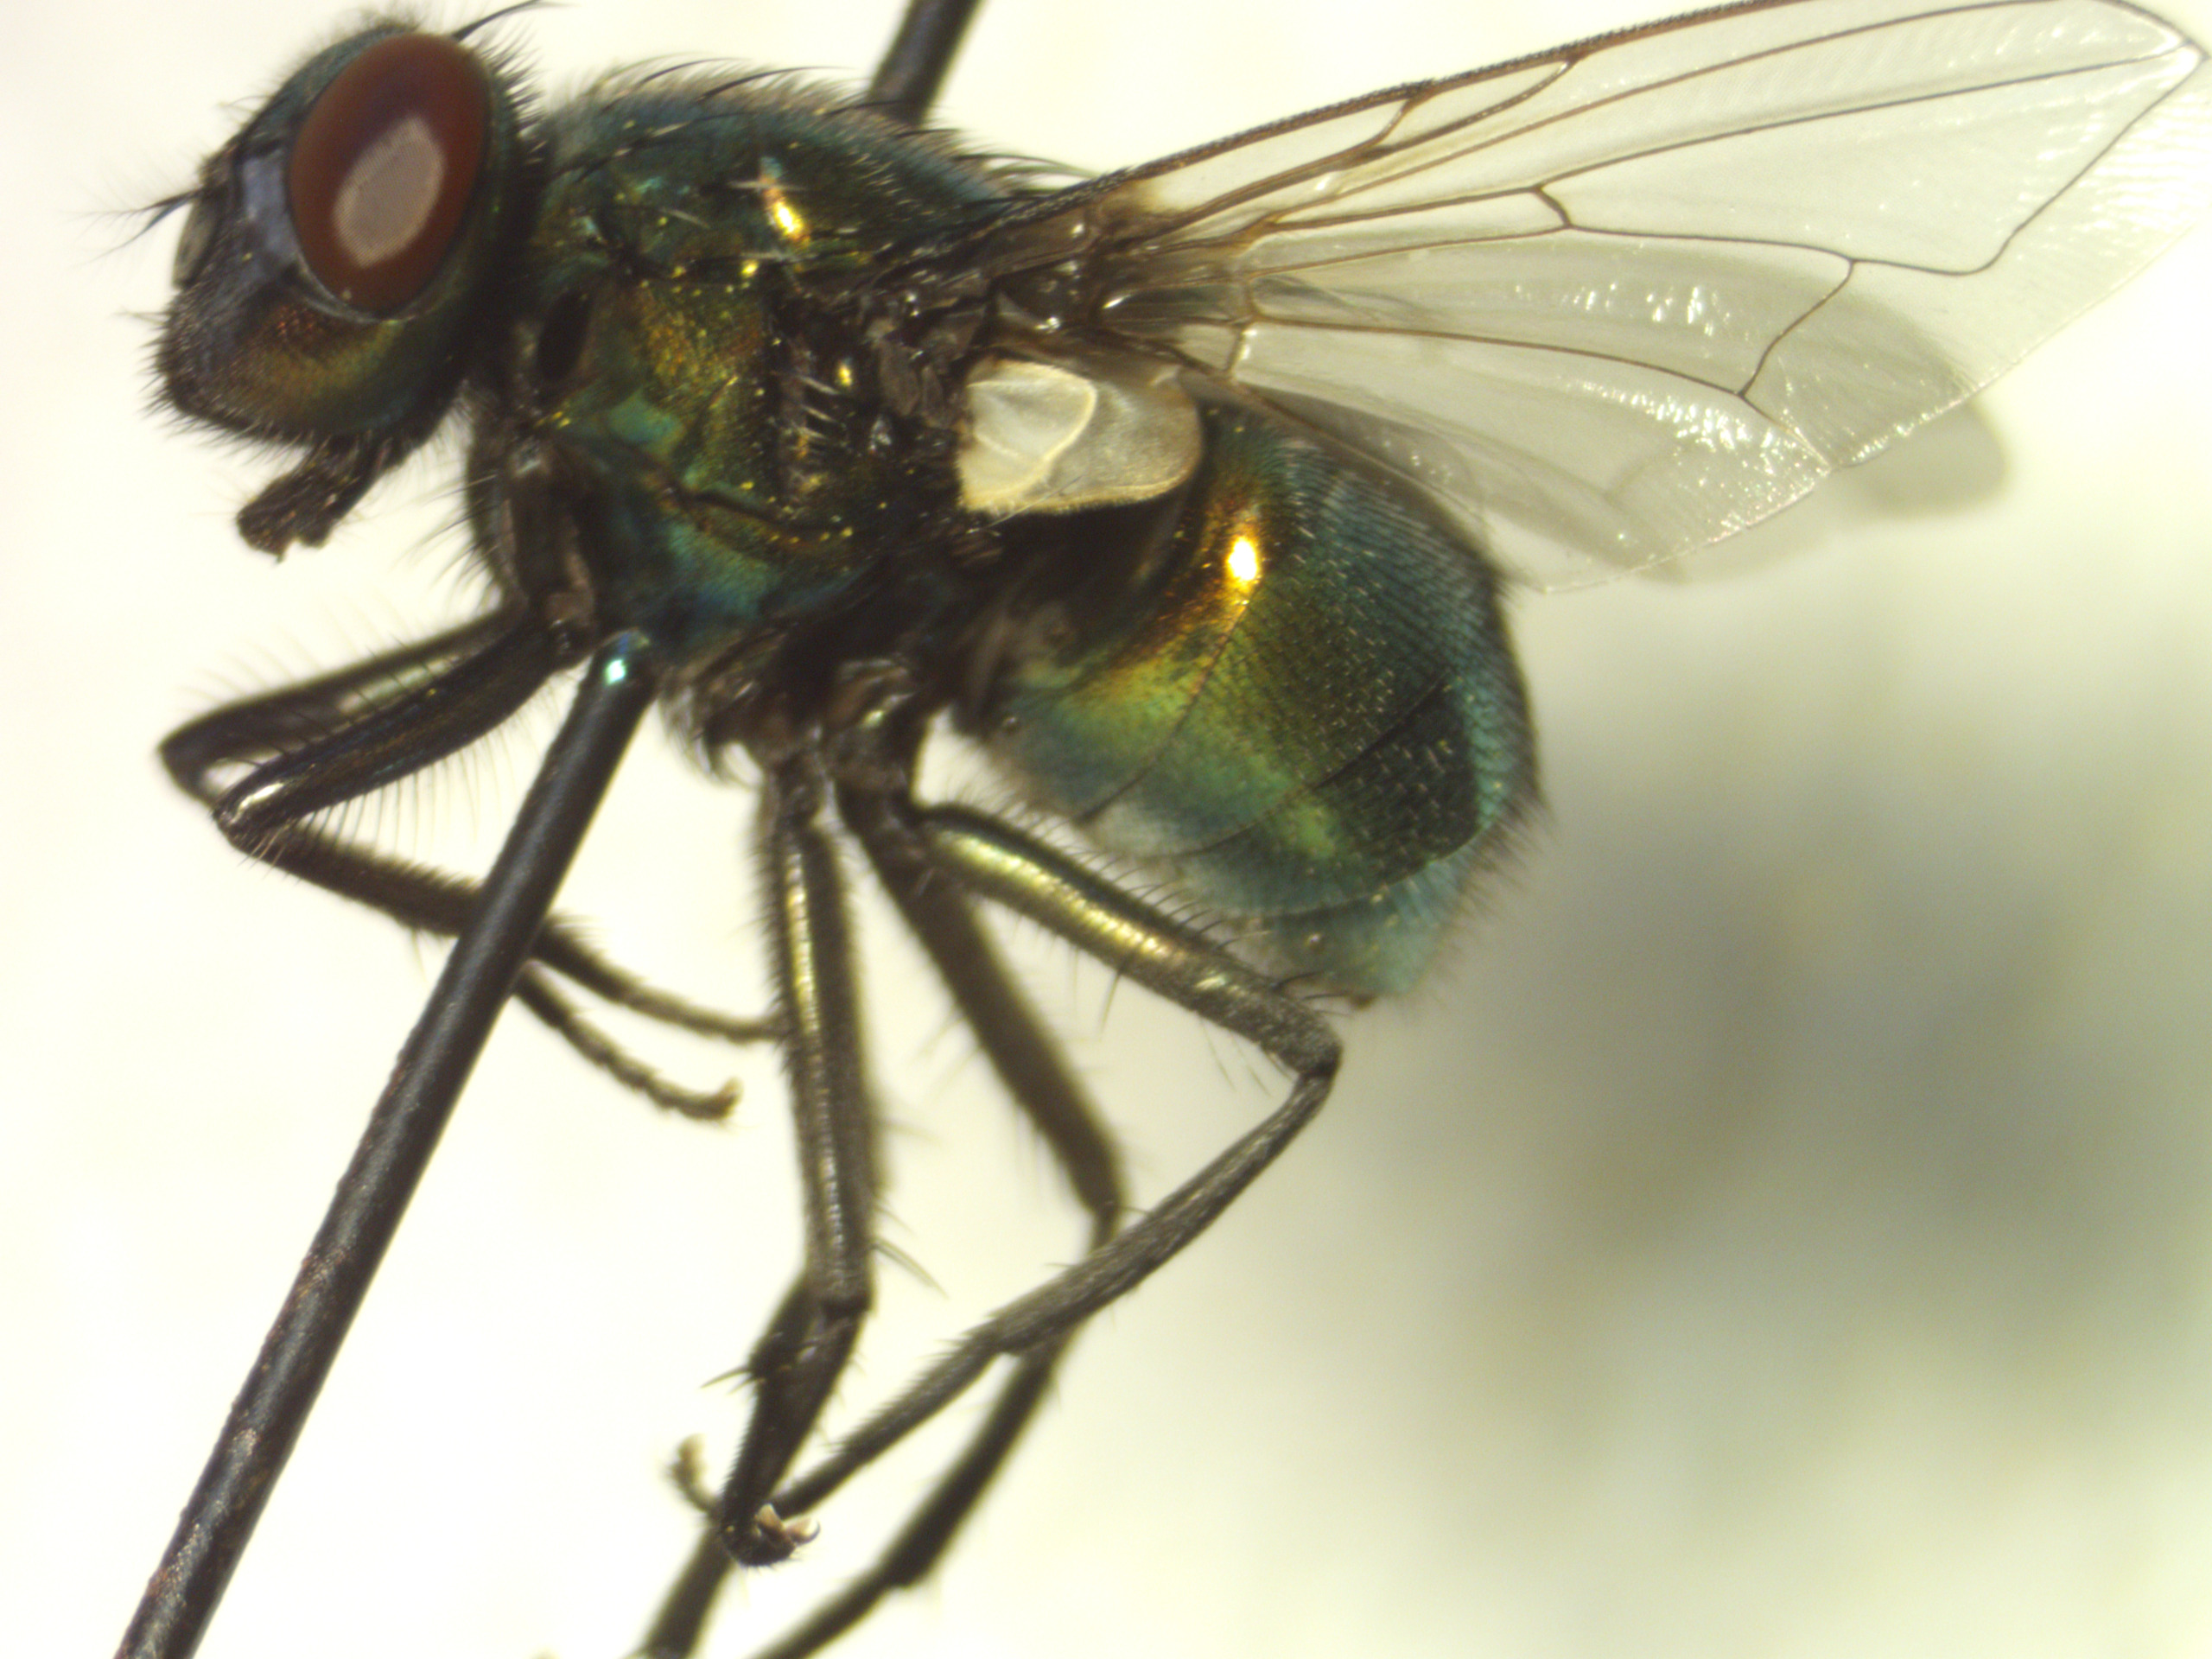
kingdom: Animalia
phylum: Arthropoda
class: Insecta
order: Diptera
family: Muscidae
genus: Neomyia
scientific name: Neomyia viridescens
